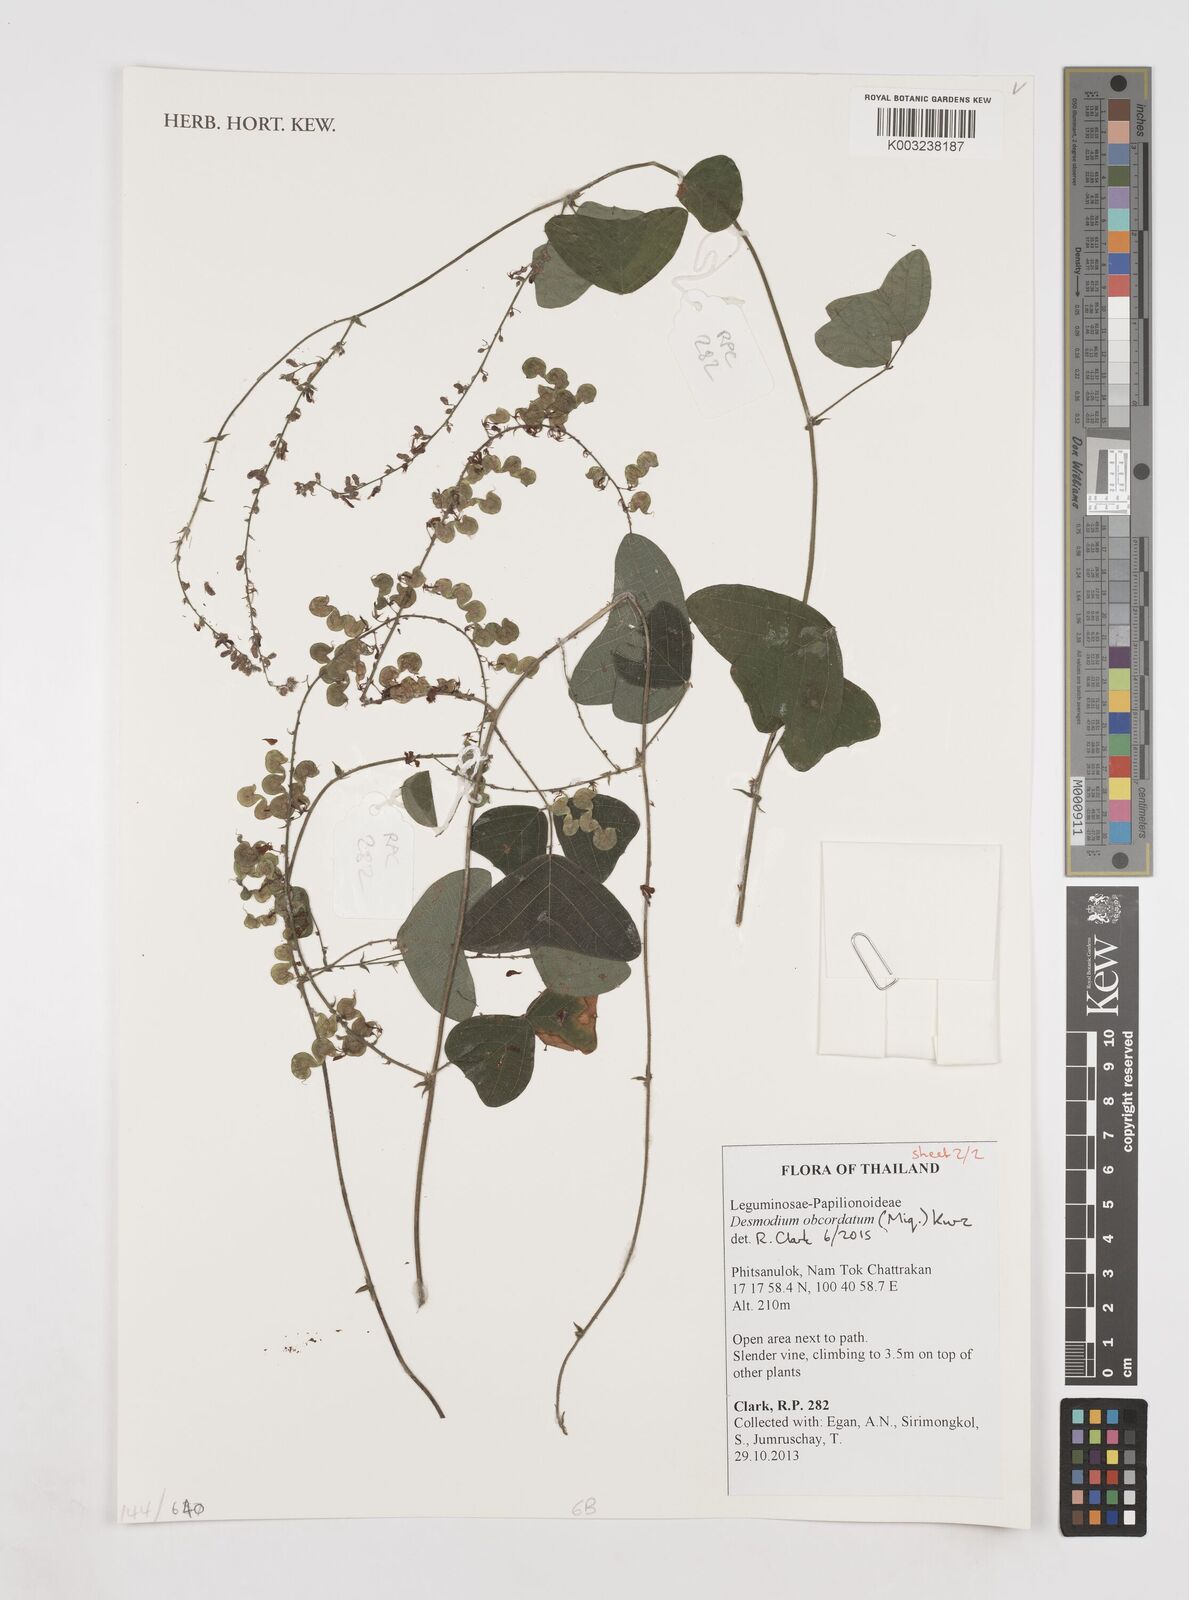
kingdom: Plantae
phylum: Tracheophyta
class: Magnoliopsida
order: Fabales
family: Fabaceae
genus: Hegnera
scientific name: Hegnera obcordata
